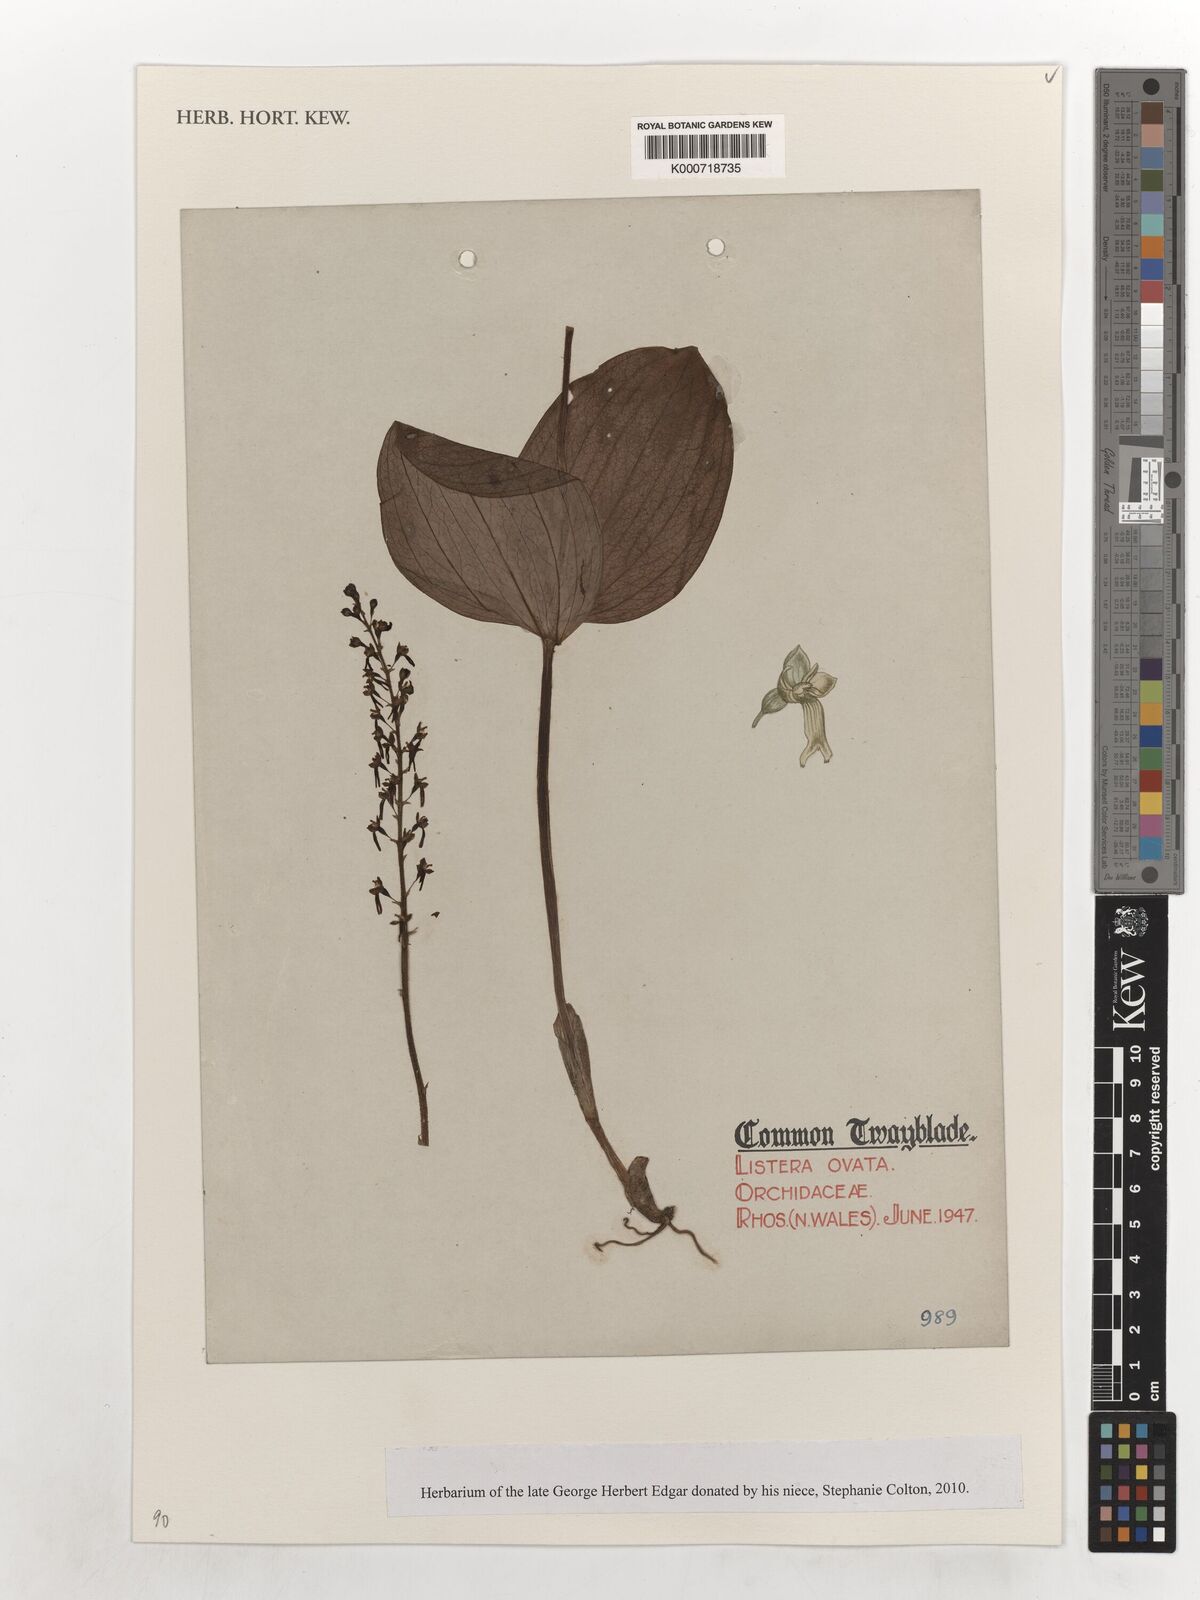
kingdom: Plantae
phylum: Tracheophyta
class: Liliopsida
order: Asparagales
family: Orchidaceae
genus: Neottia
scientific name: Neottia ovata
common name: Common twayblade
